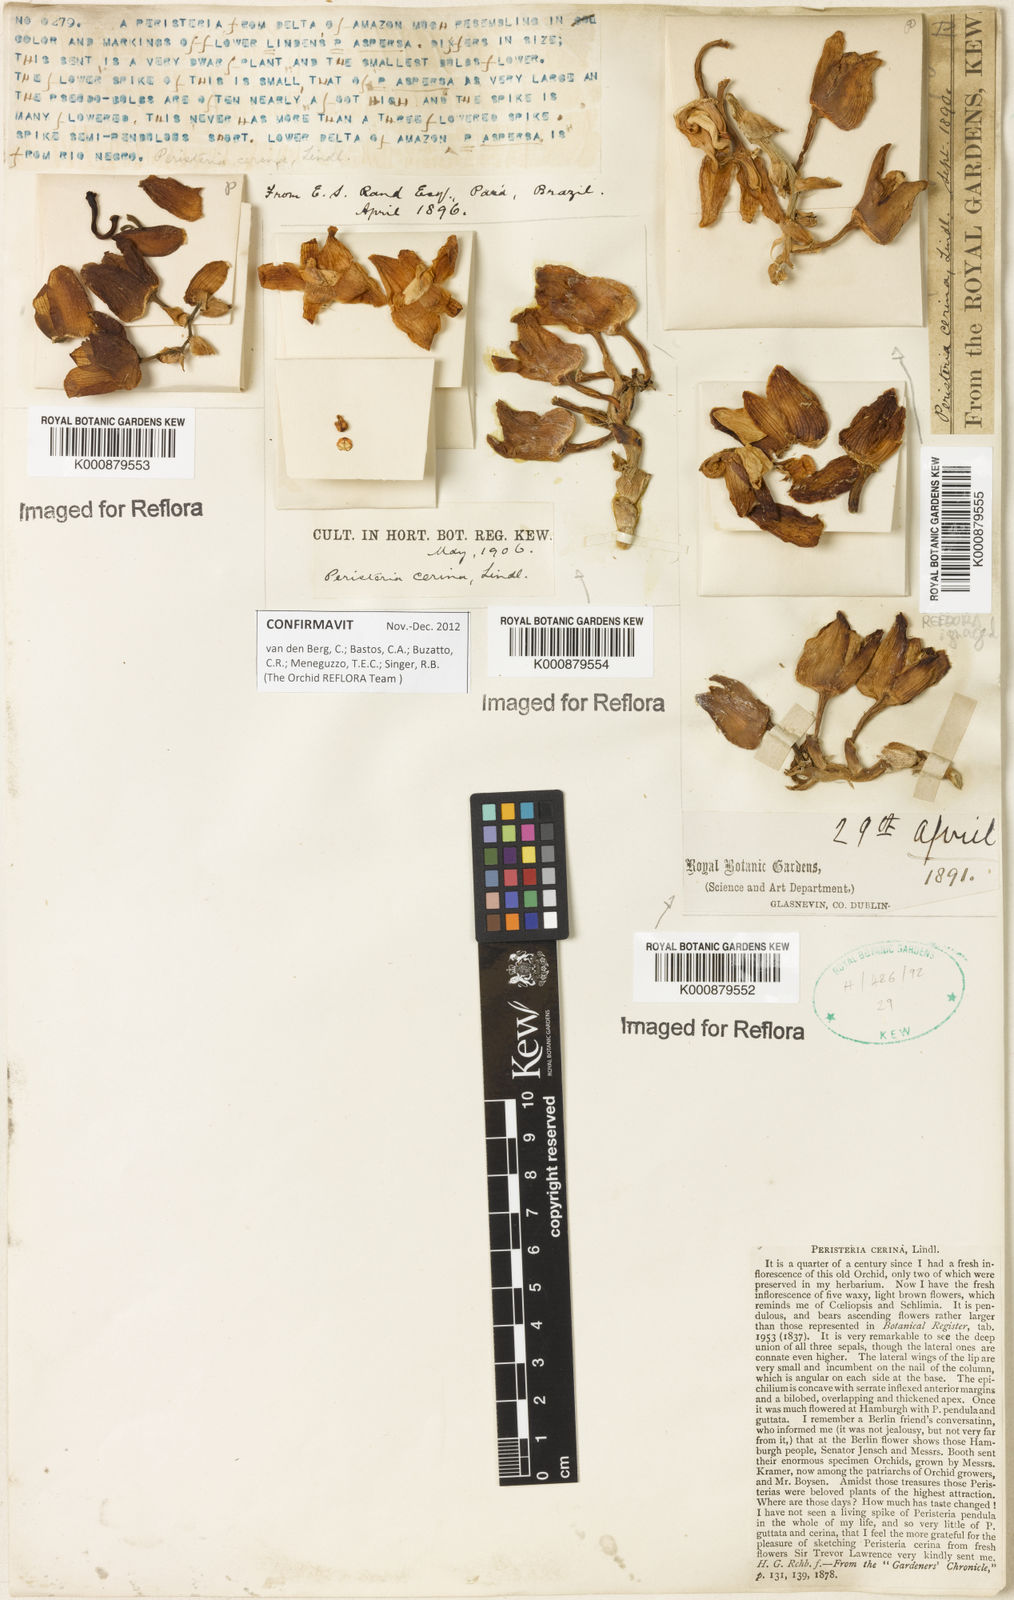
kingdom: Plantae
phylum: Tracheophyta
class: Liliopsida
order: Asparagales
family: Orchidaceae
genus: Peristeria
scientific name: Peristeria cerina
